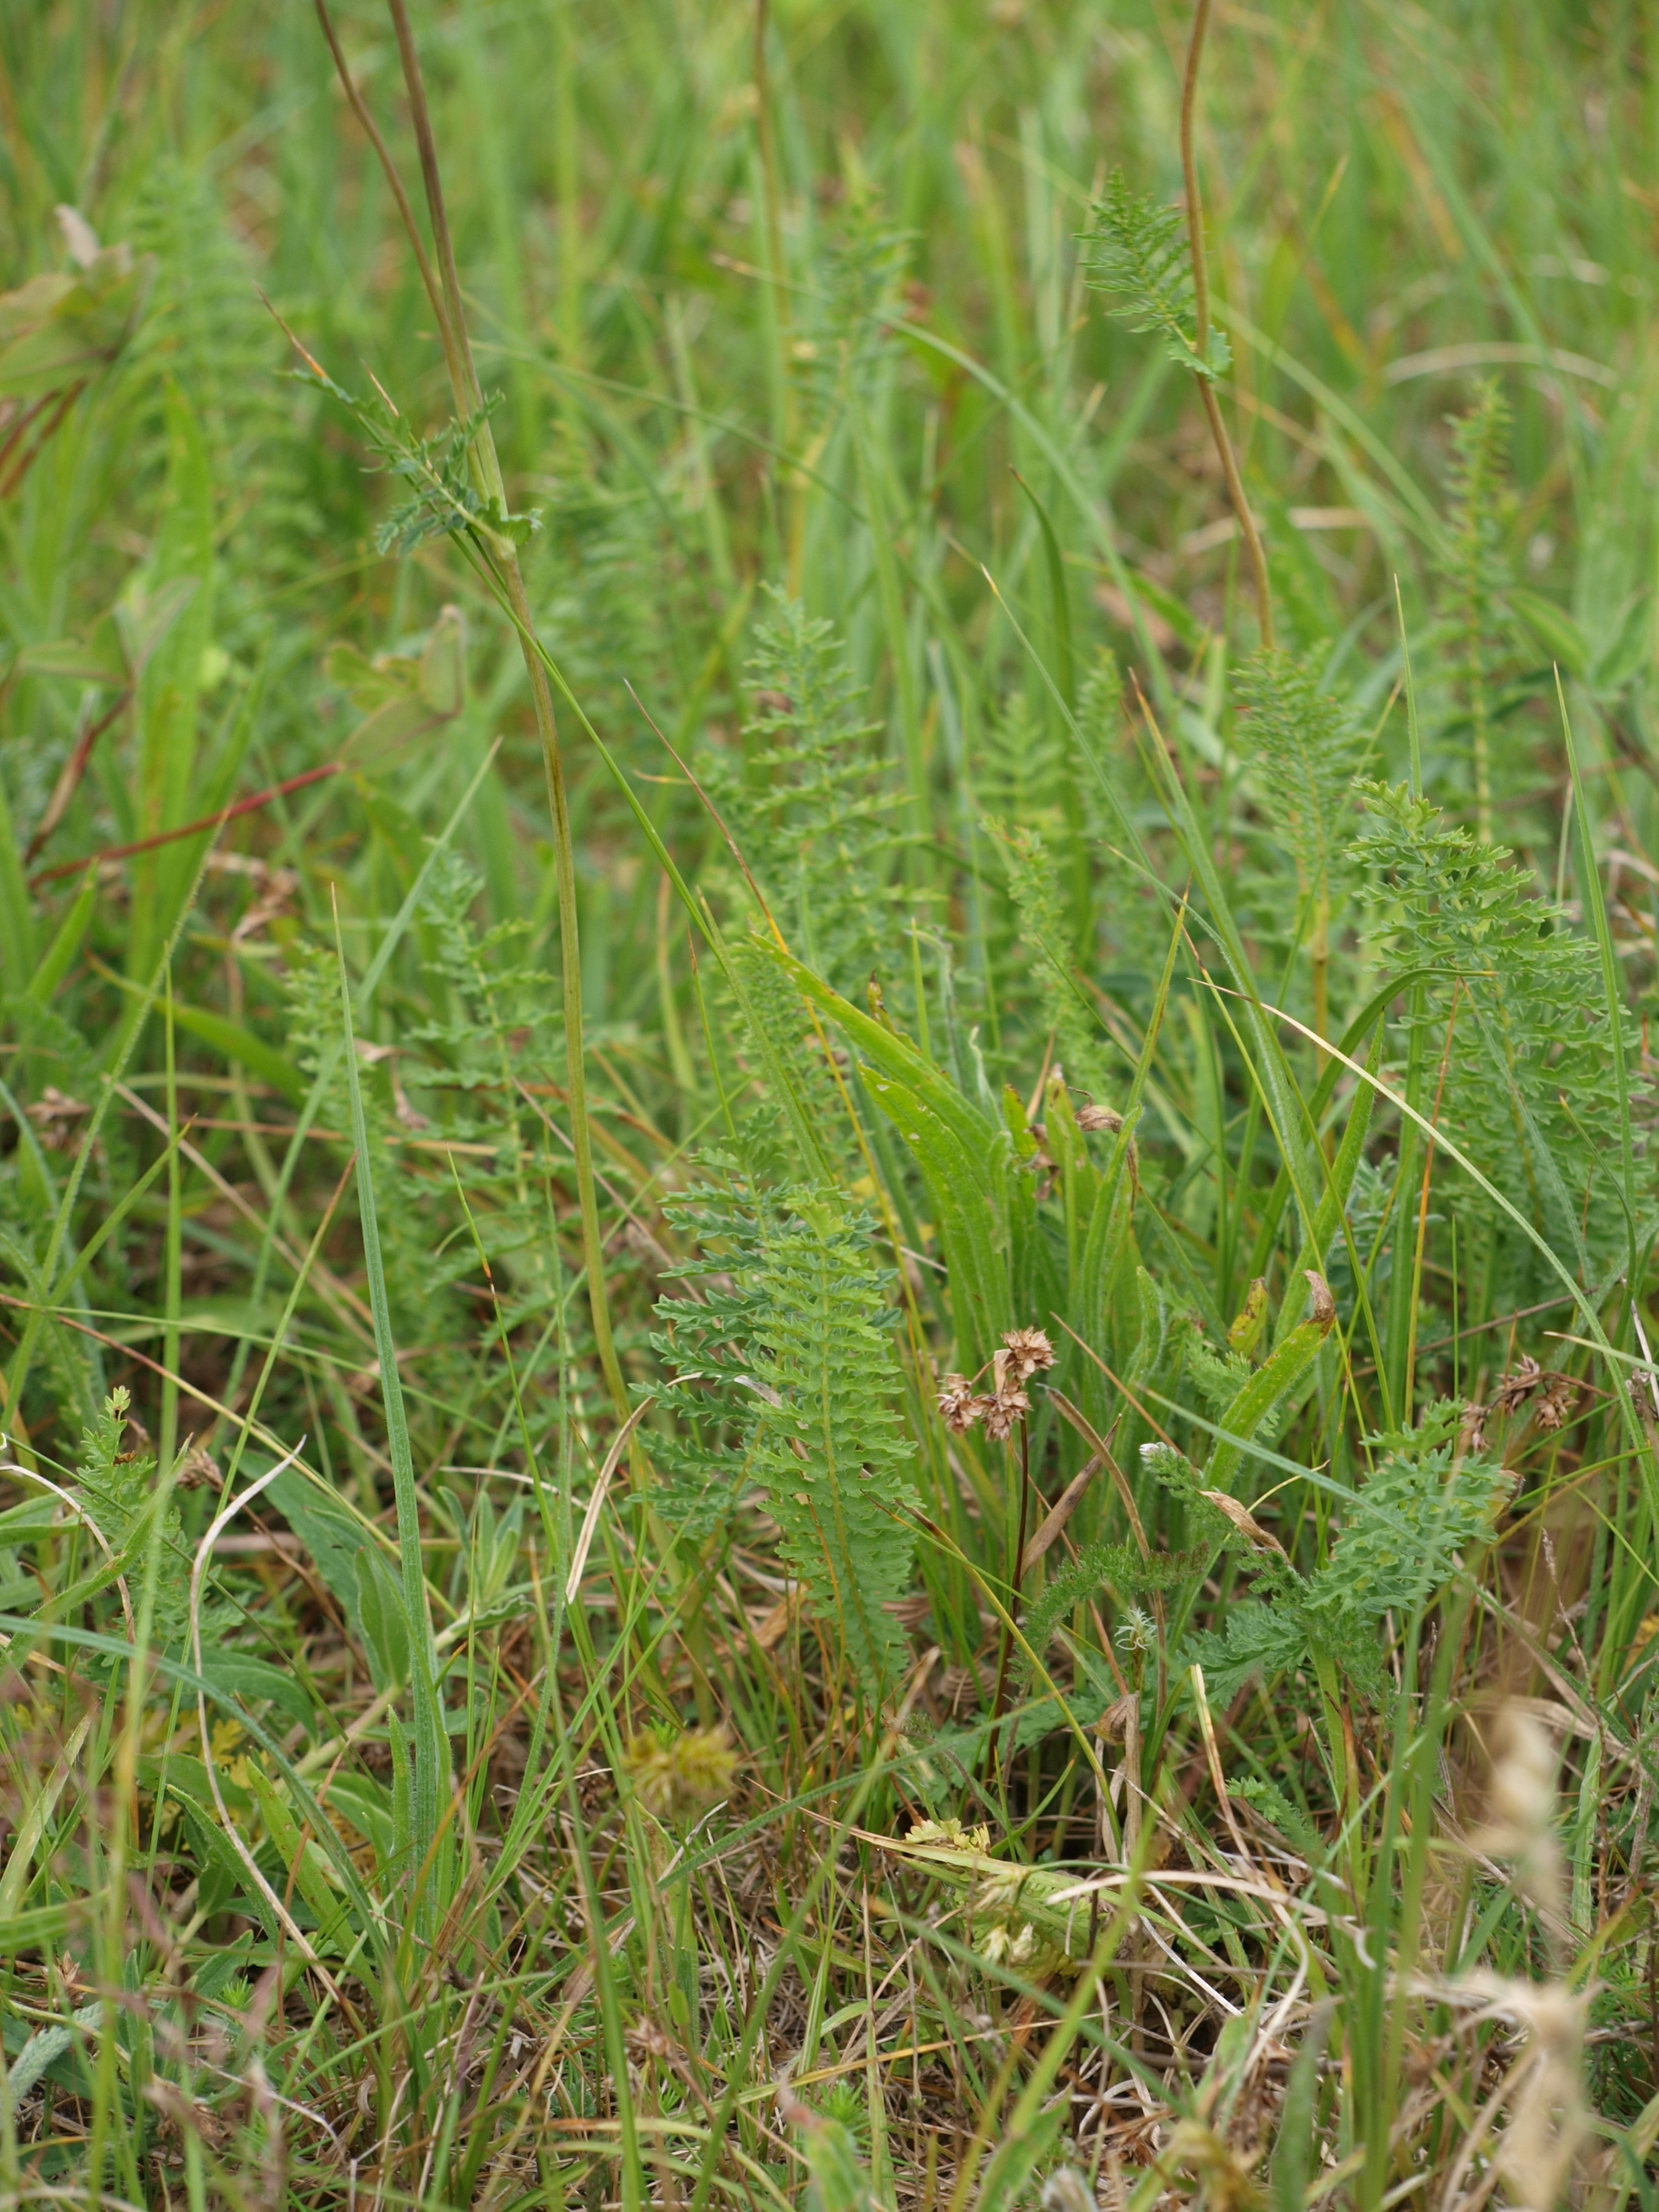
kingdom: Plantae
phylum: Tracheophyta
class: Magnoliopsida
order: Rosales
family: Rosaceae
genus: Filipendula
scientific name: Filipendula vulgaris
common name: Knoldet mjødurt
